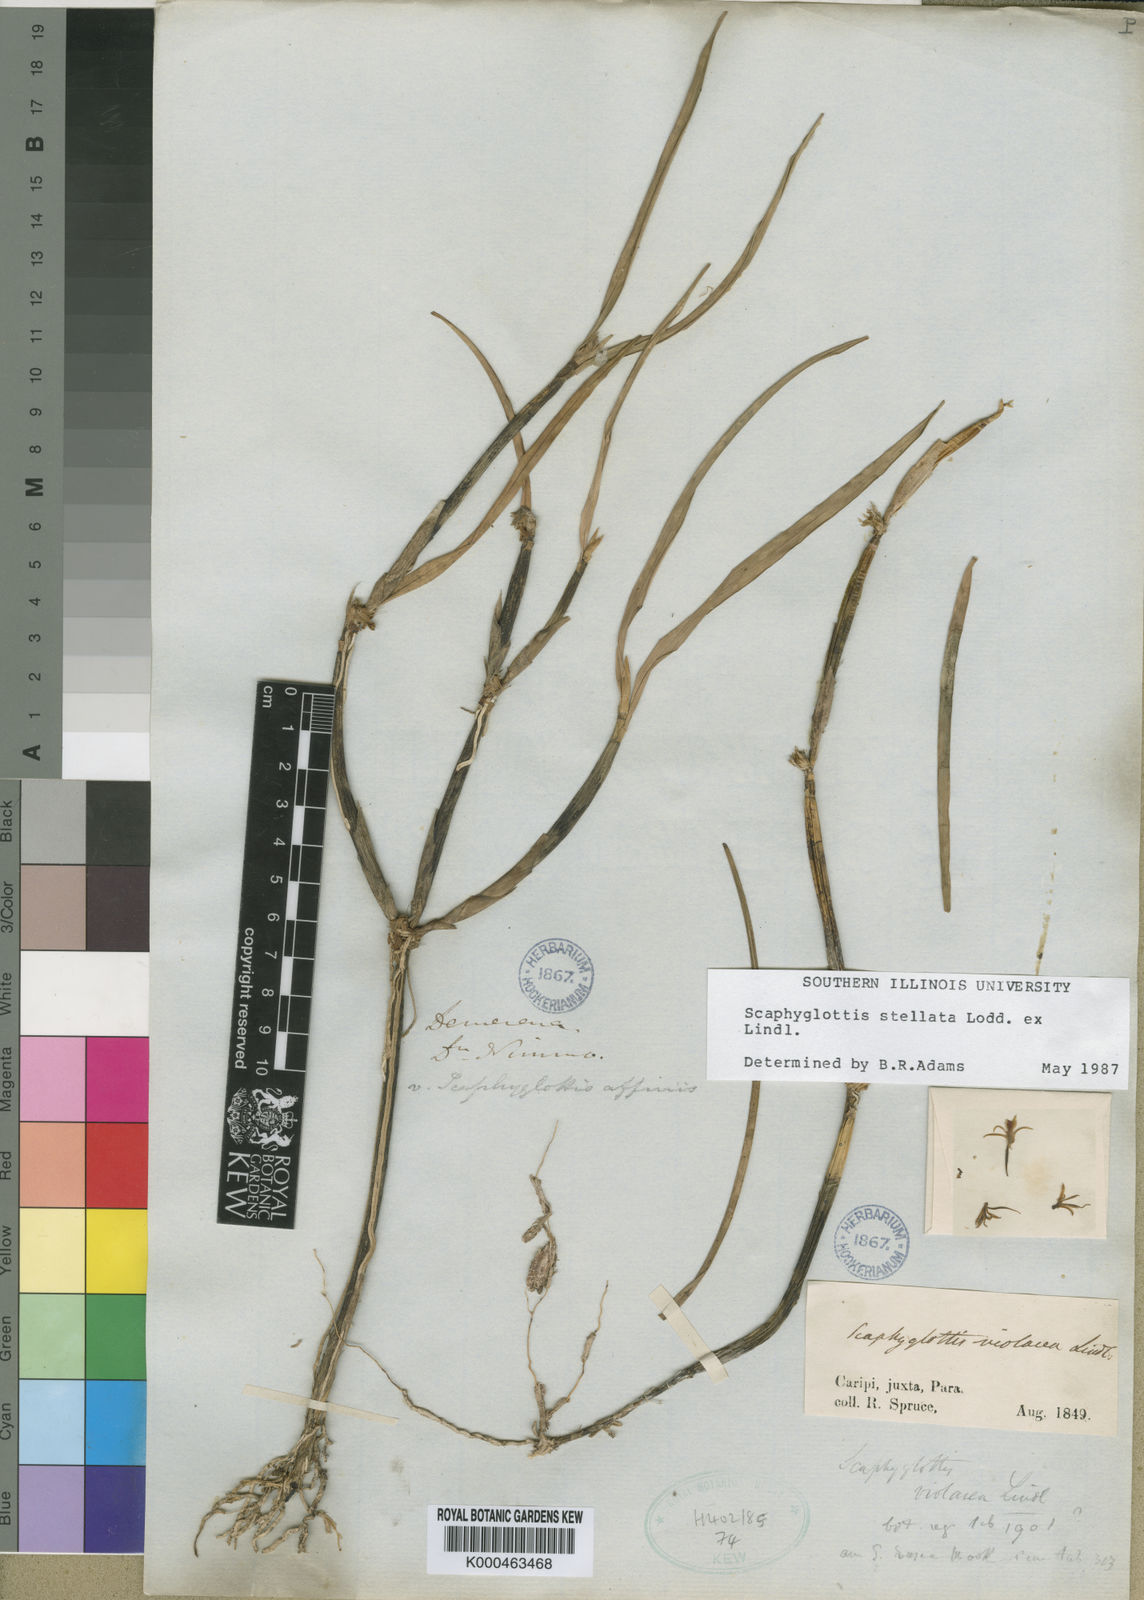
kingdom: Plantae
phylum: Tracheophyta
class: Liliopsida
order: Asparagales
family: Orchidaceae
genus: Scaphyglottis
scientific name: Scaphyglottis
